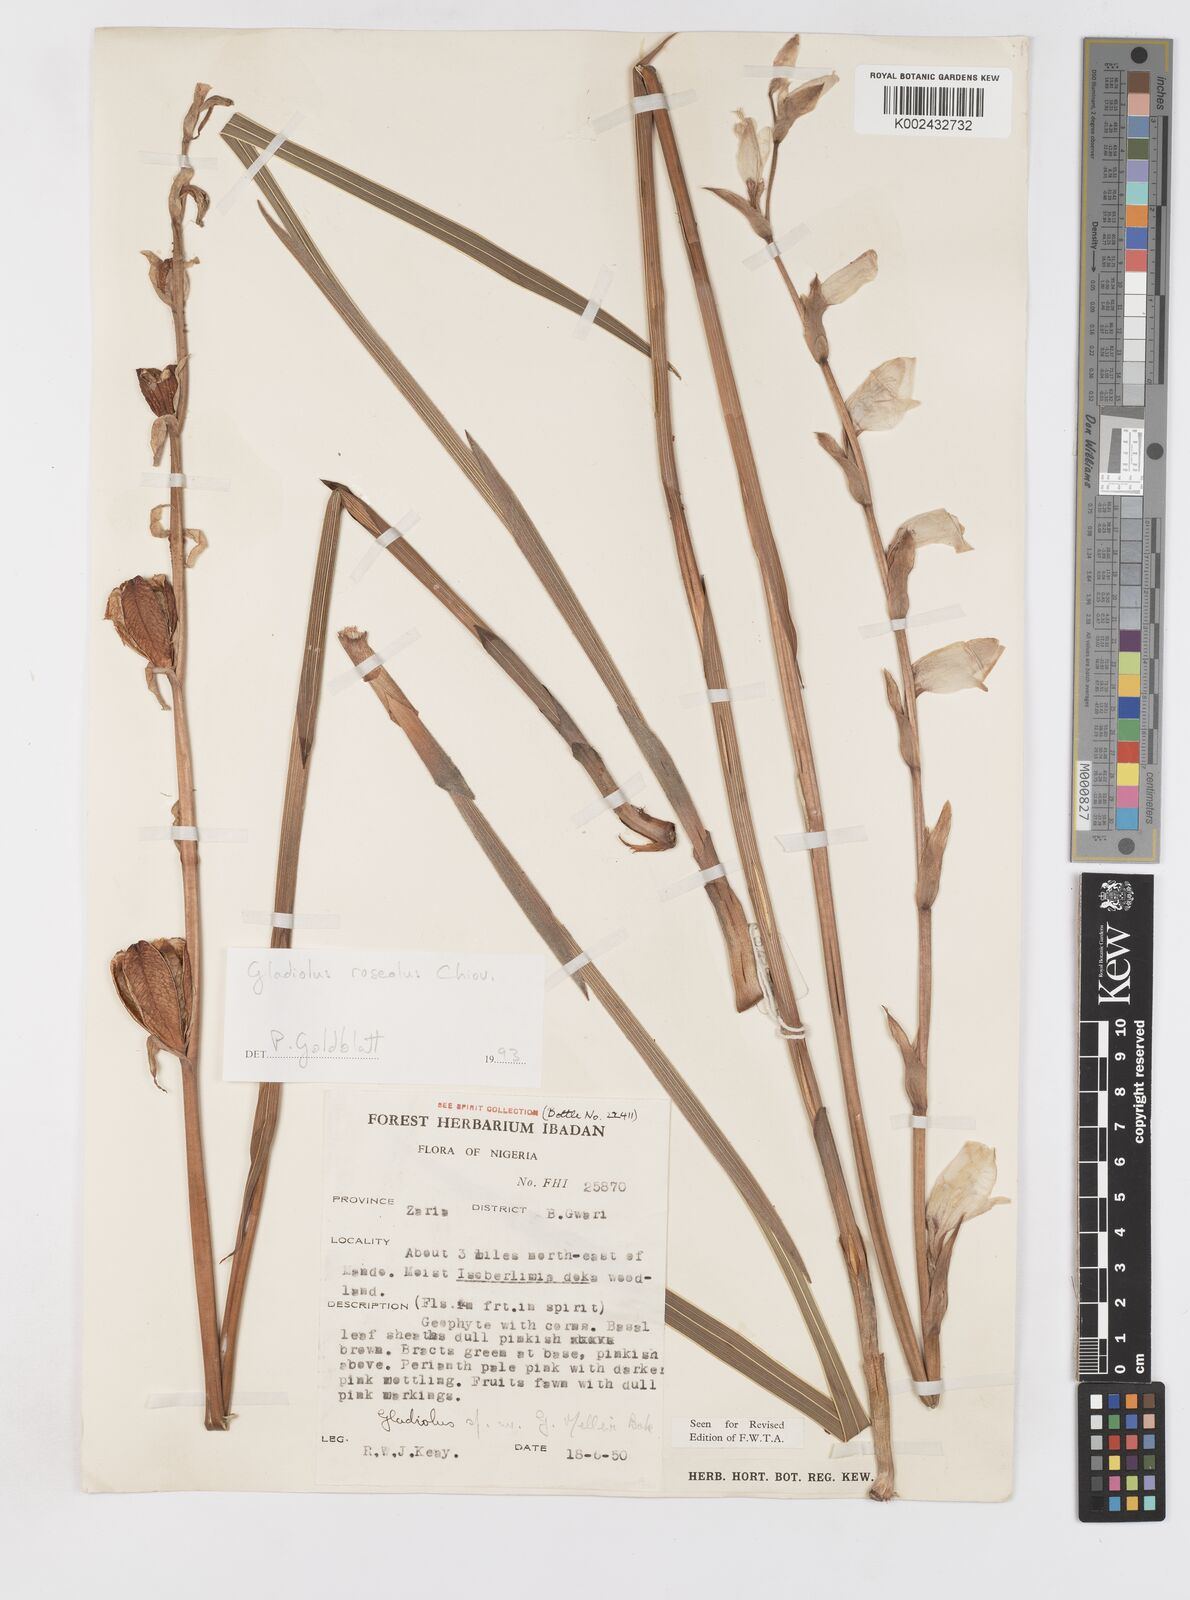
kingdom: Plantae
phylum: Tracheophyta
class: Liliopsida
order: Asparagales
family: Iridaceae
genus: Gladiolus
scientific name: Gladiolus roseolus
